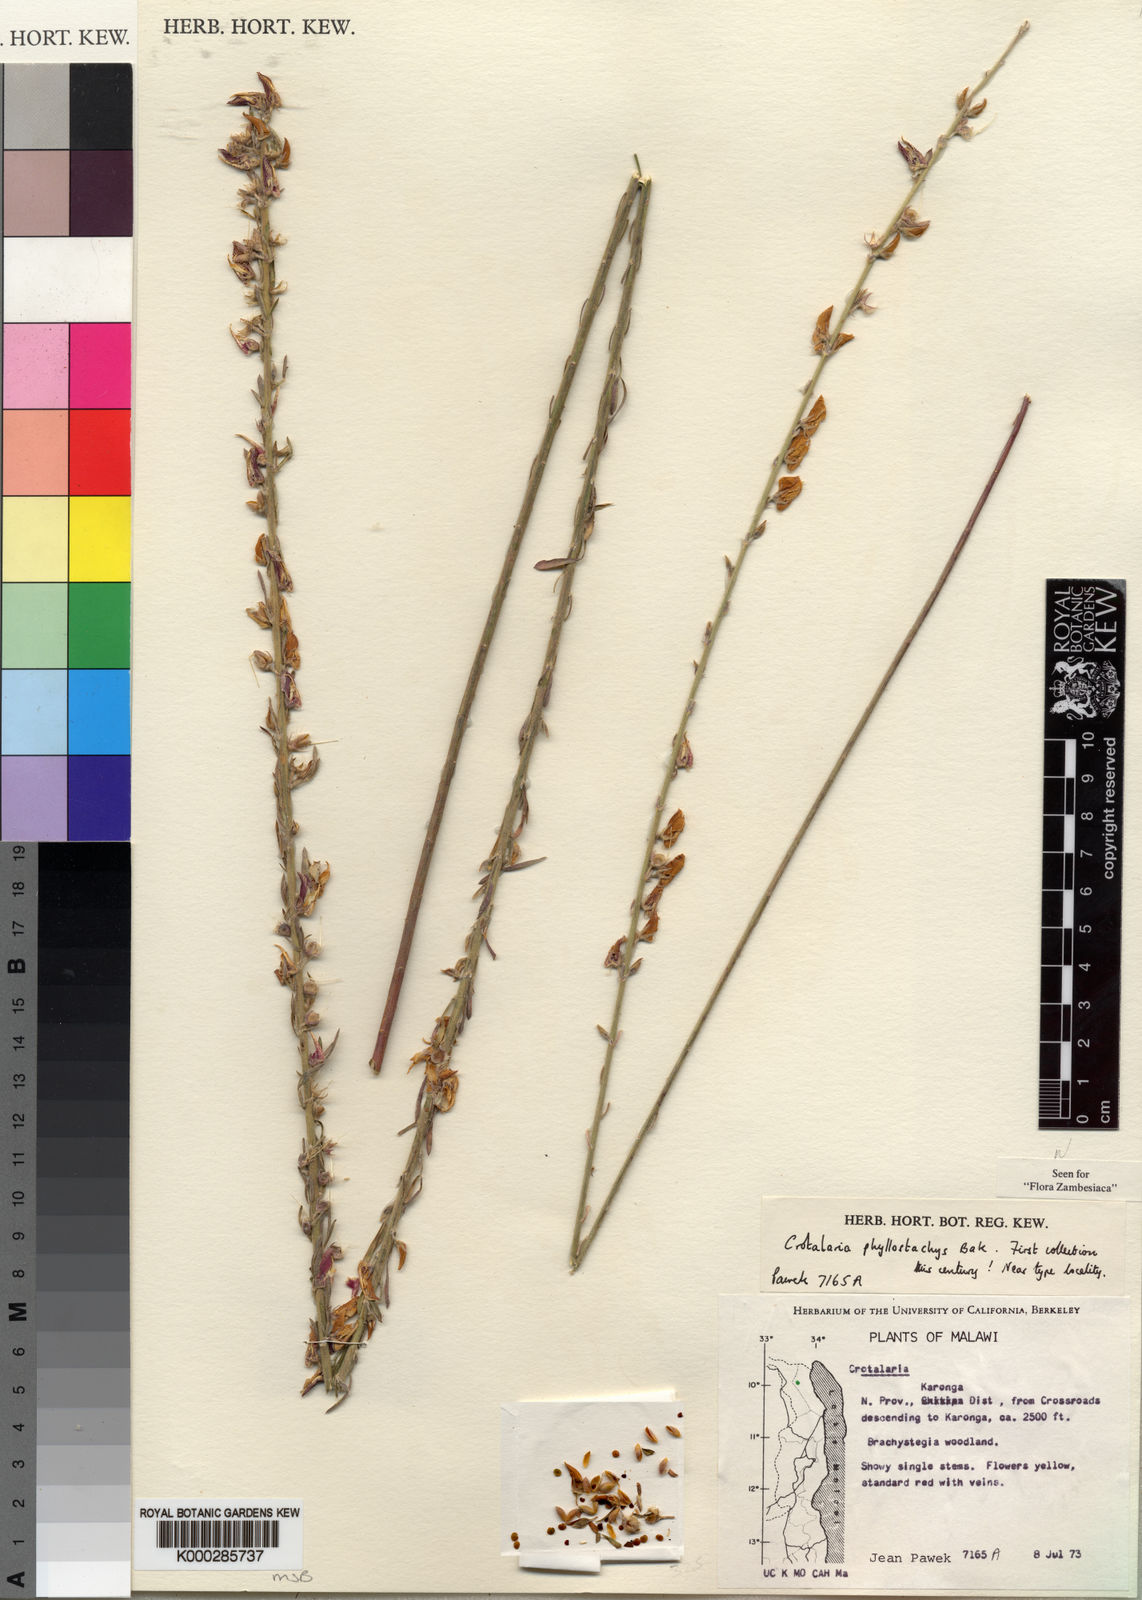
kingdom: Plantae
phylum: Tracheophyta
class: Magnoliopsida
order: Fabales
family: Fabaceae
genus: Crotalaria
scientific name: Crotalaria phyllostachys
